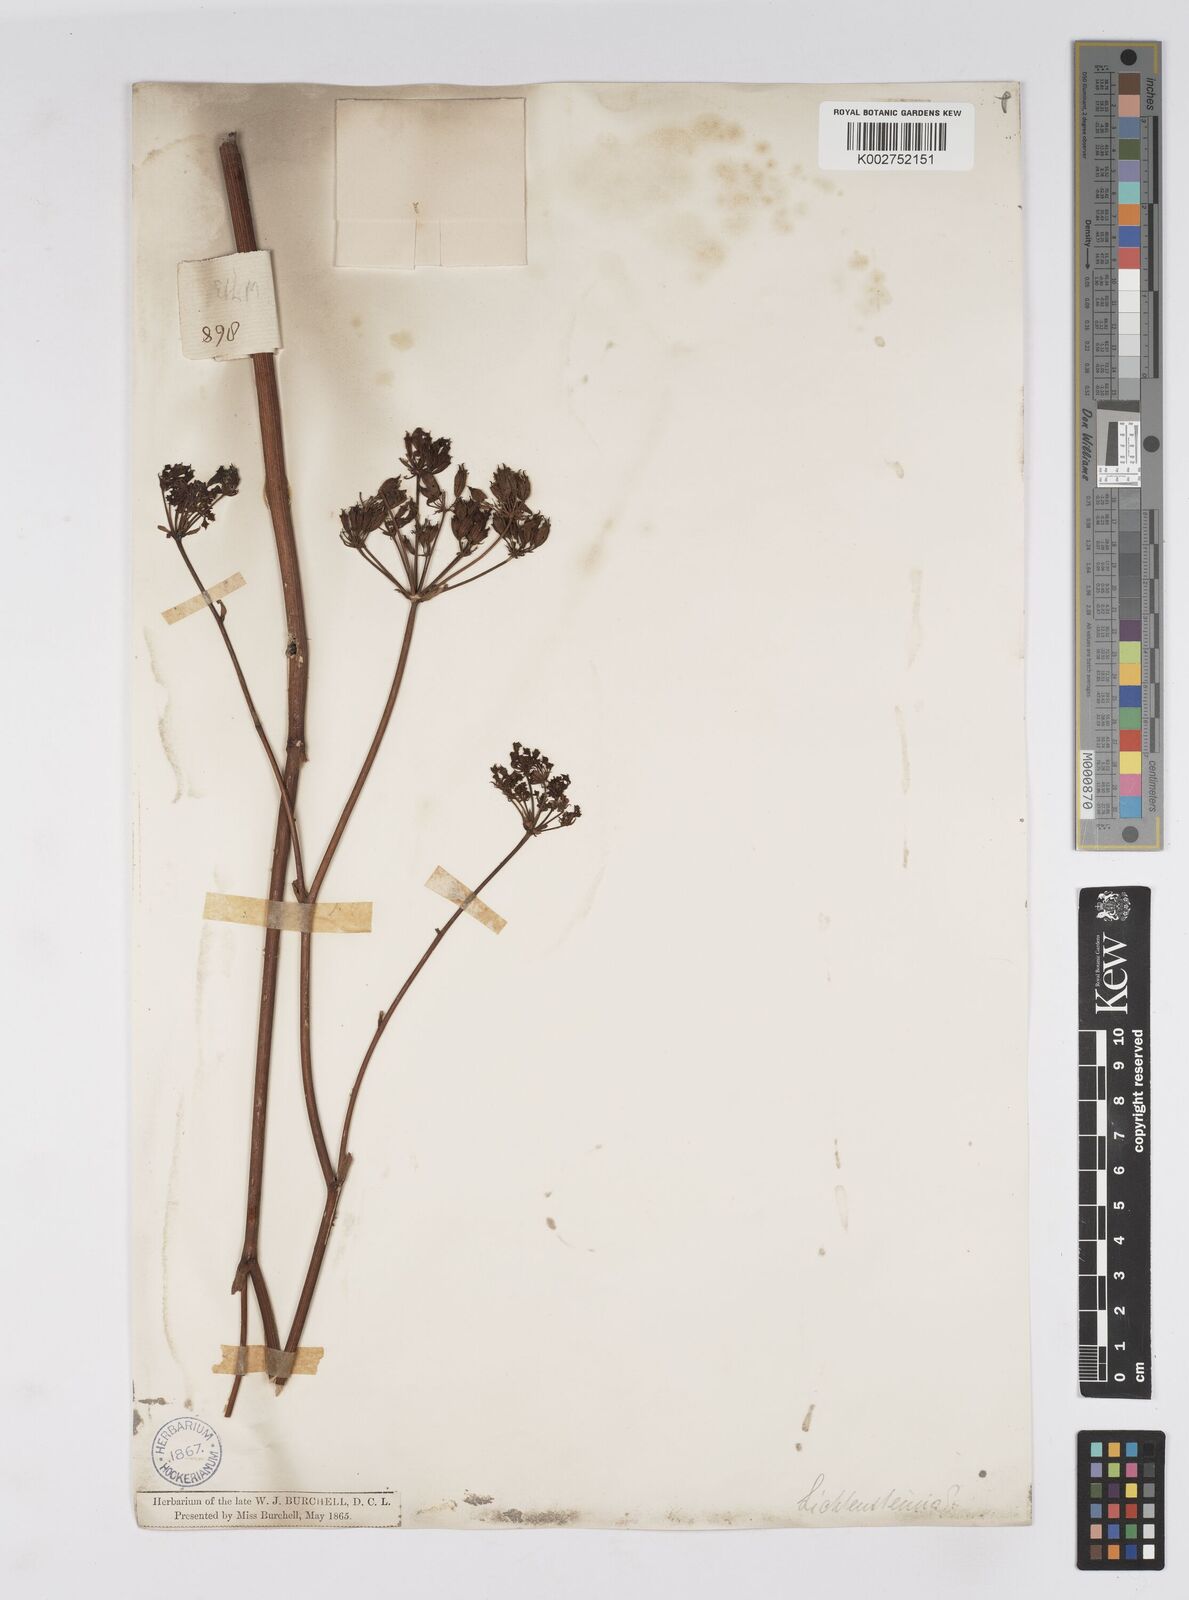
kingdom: Plantae
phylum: Tracheophyta
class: Magnoliopsida
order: Apiales
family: Apiaceae
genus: Lichtensteinia
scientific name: Lichtensteinia
